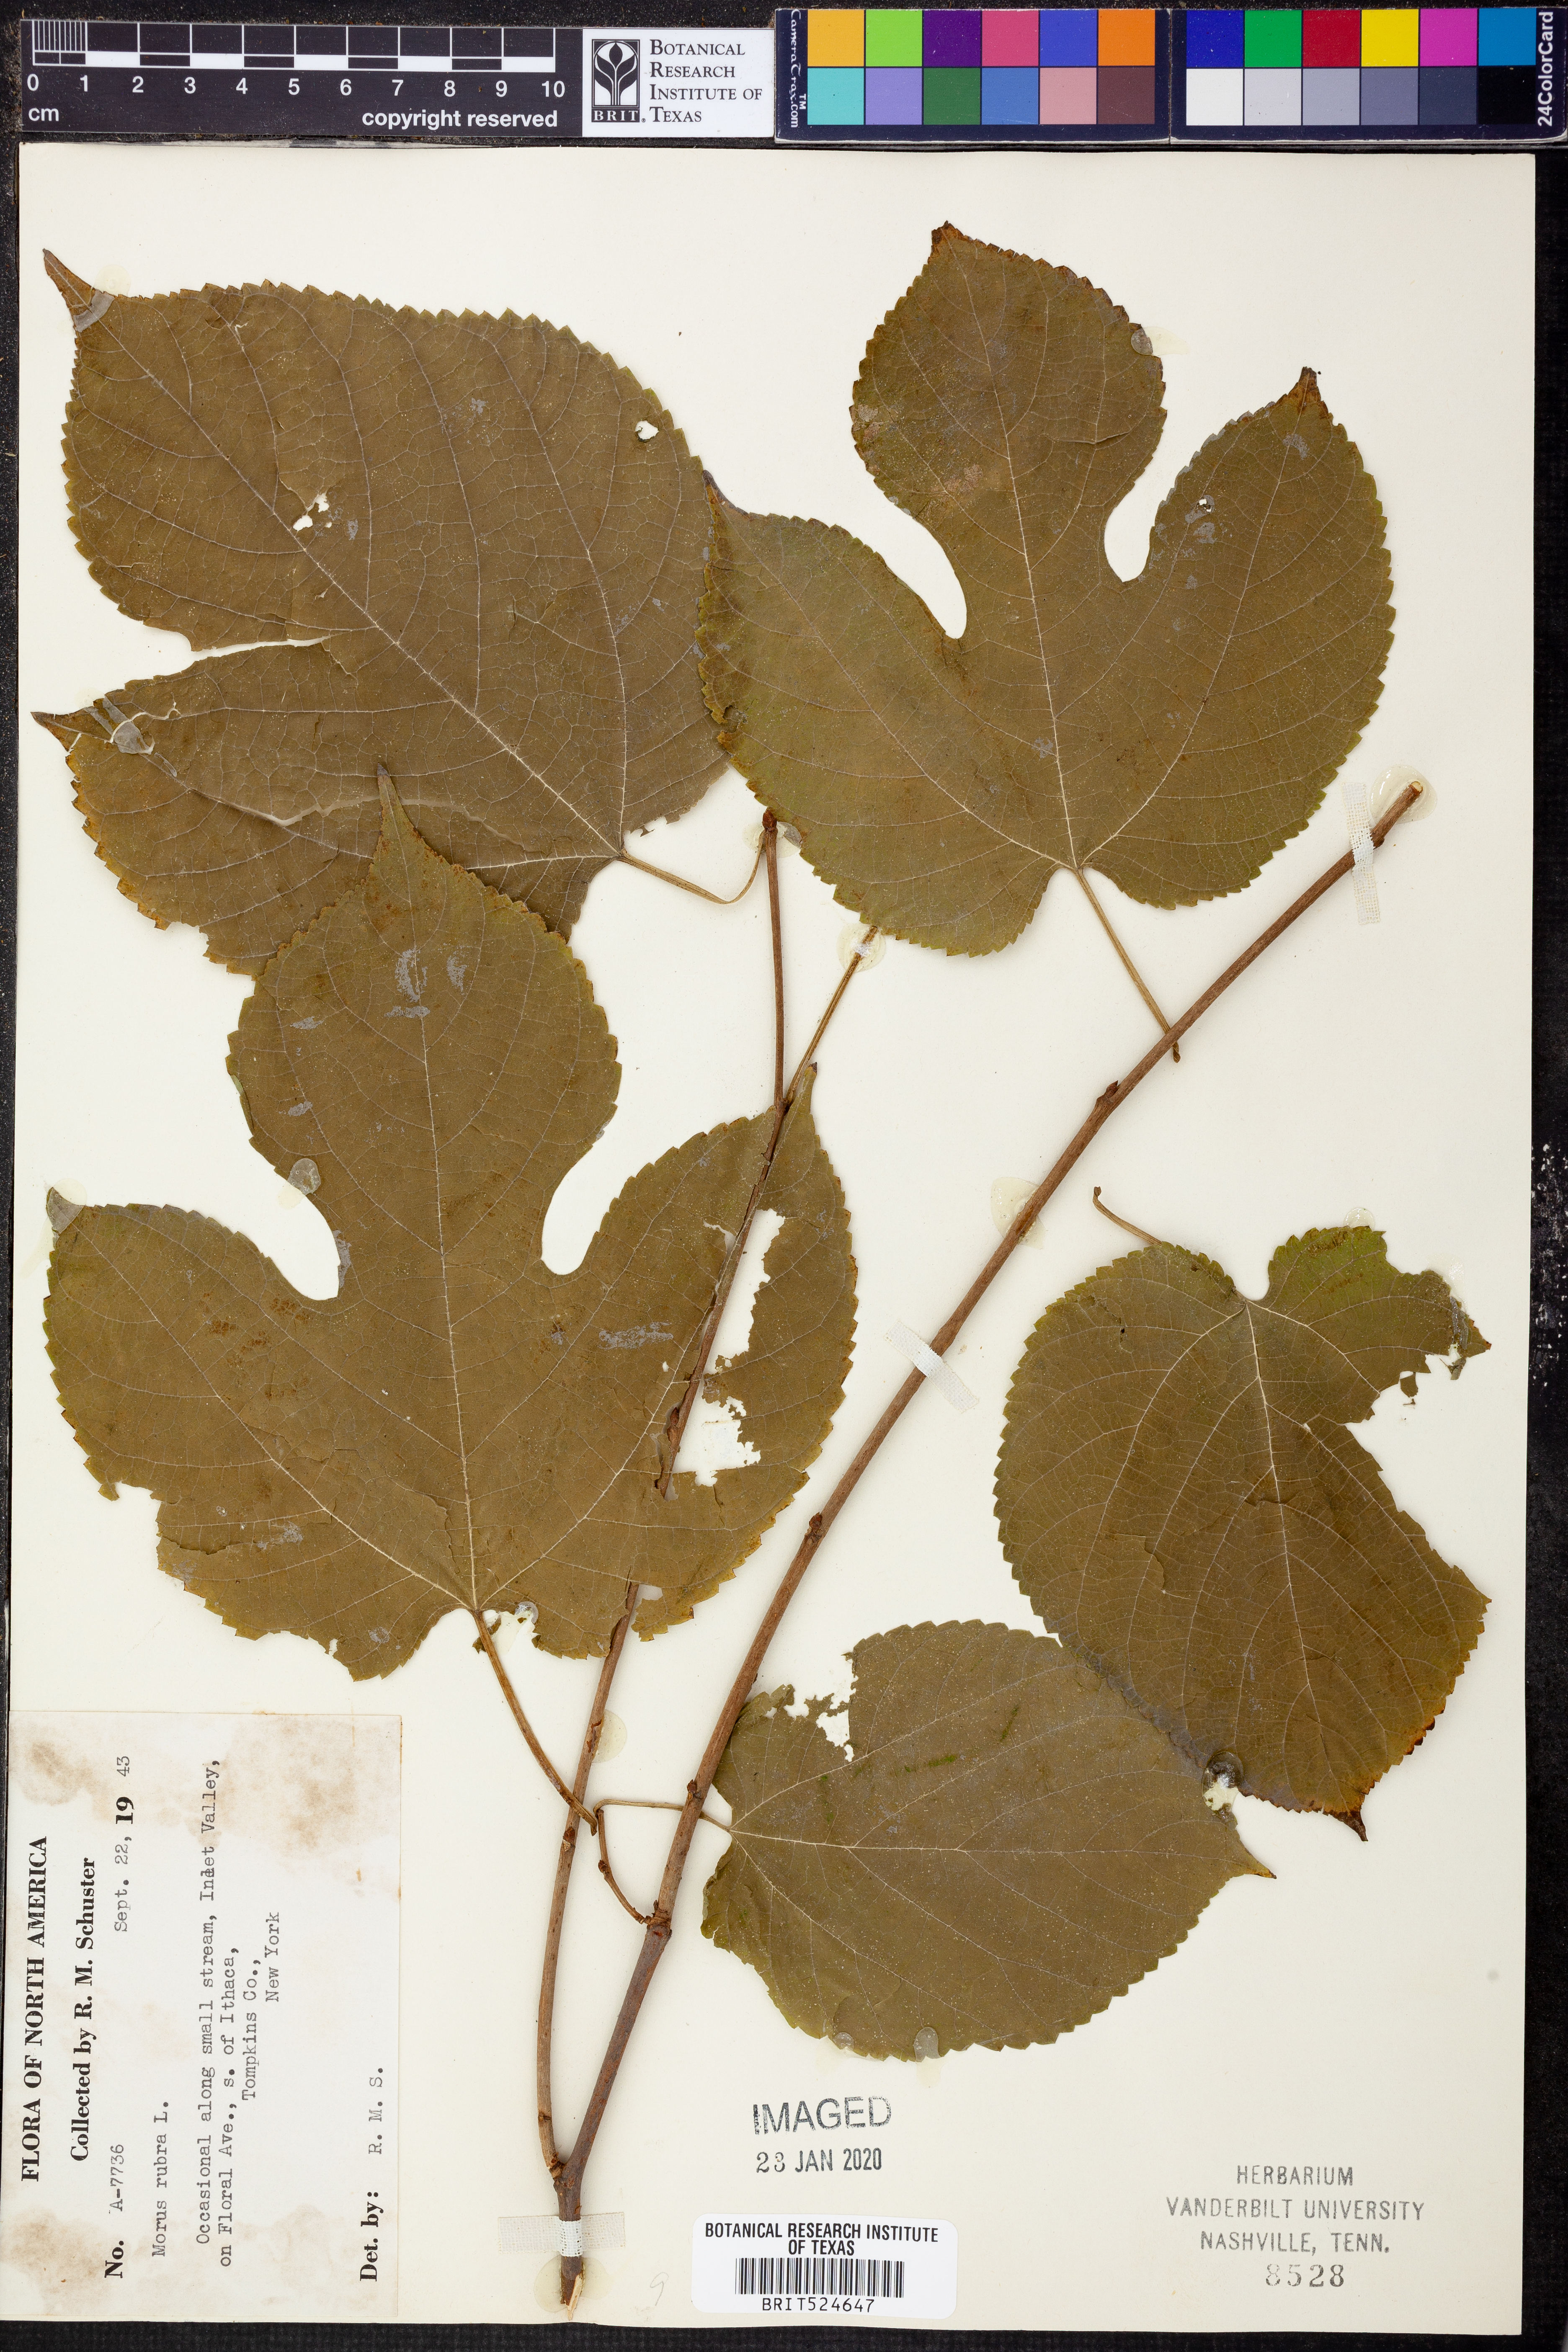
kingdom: Plantae
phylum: Tracheophyta
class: Magnoliopsida
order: Rosales
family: Moraceae
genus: Morus
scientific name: Morus rubra
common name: Red mulberry
